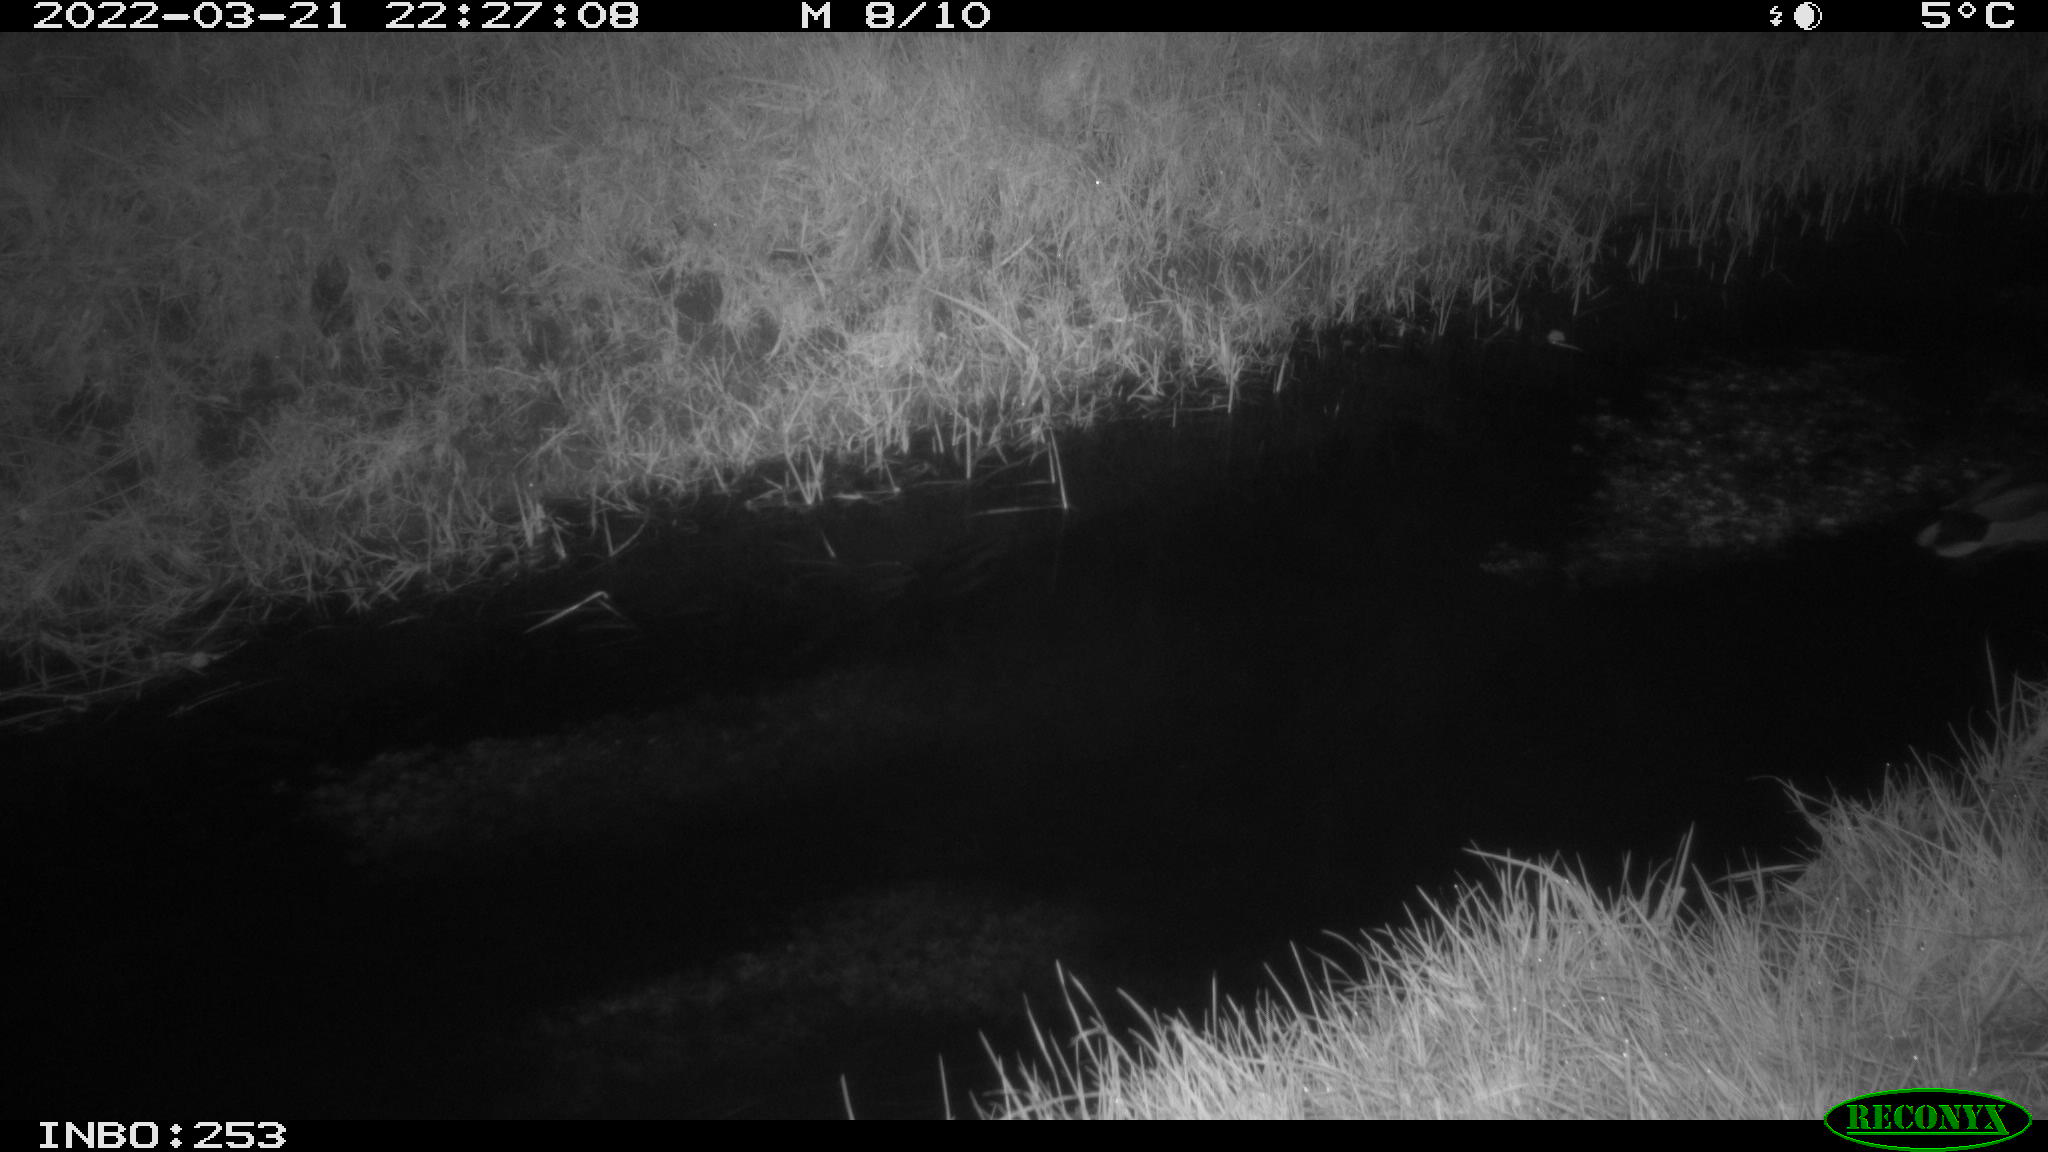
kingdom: Animalia
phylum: Chordata
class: Aves
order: Anseriformes
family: Anatidae
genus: Anas
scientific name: Anas platyrhynchos
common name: Mallard
